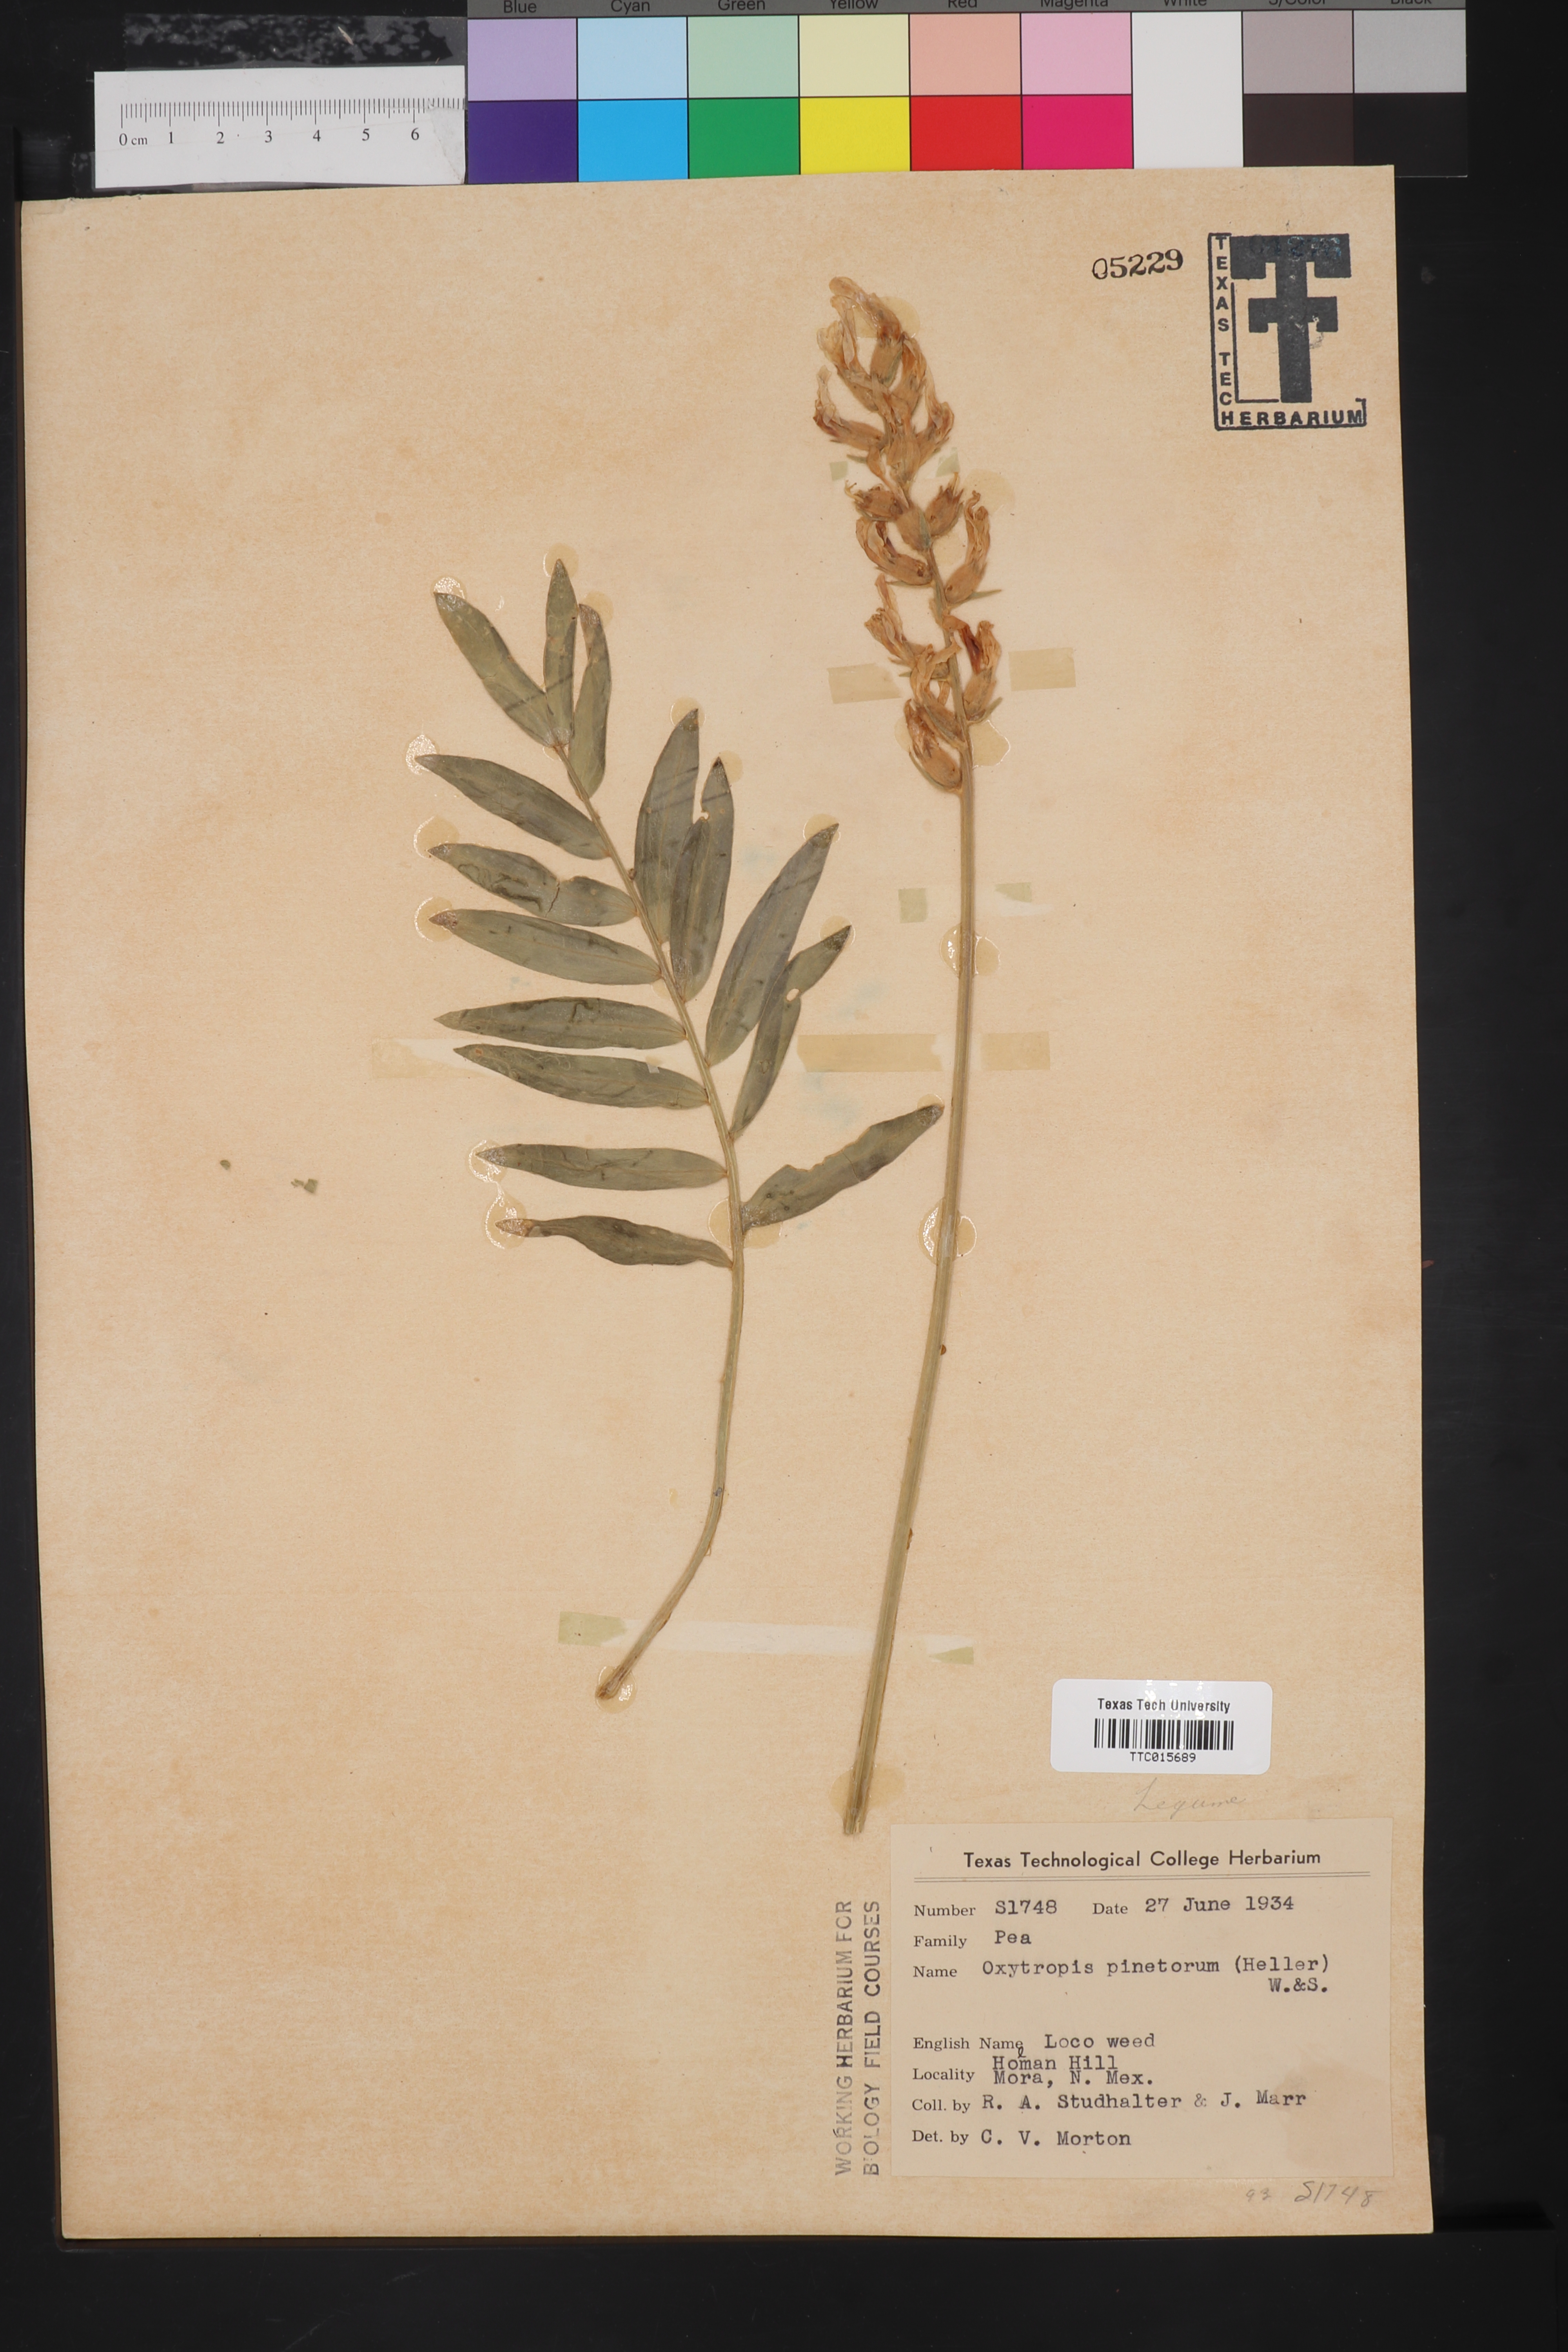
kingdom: Plantae
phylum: Tracheophyta
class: Magnoliopsida
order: Fabales
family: Fabaceae
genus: Oxytropis
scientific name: Oxytropis sericea
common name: Silky locoweed
